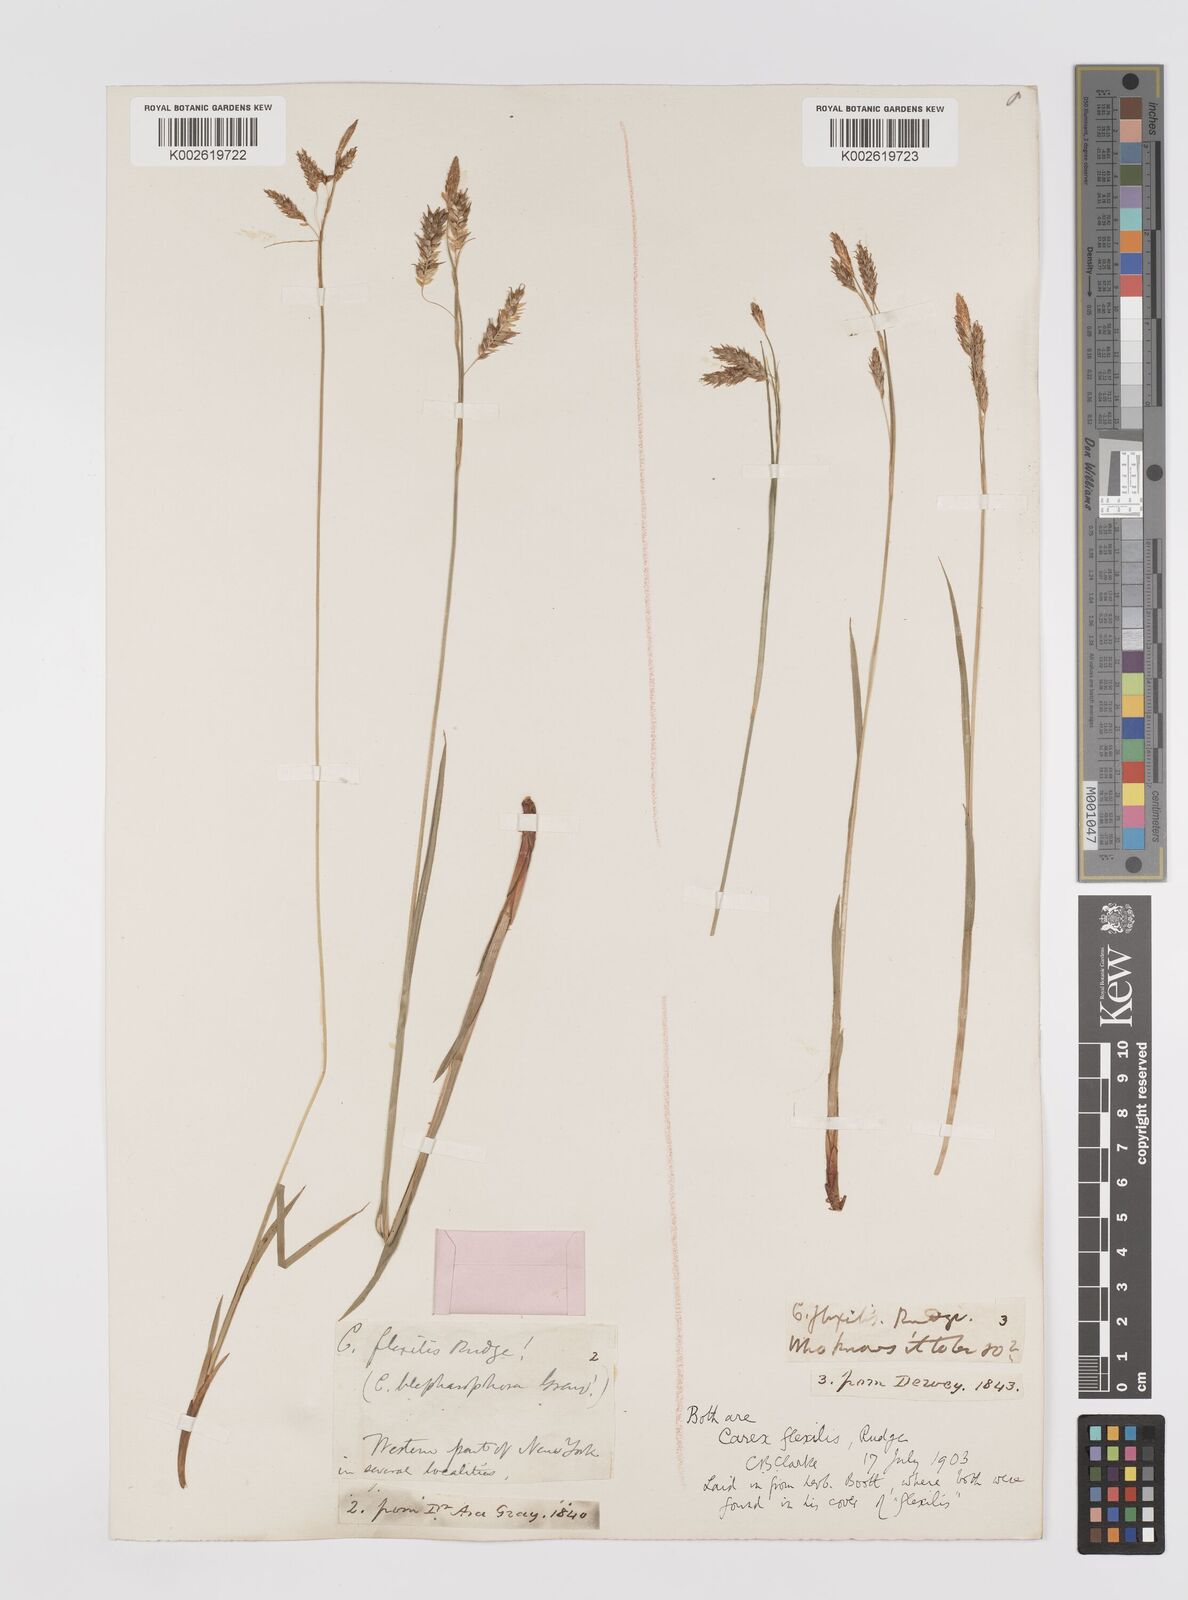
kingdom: Plantae
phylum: Tracheophyta
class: Liliopsida
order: Poales
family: Cyperaceae
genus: Carex
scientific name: Carex castanea
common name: Chestnut sedge
